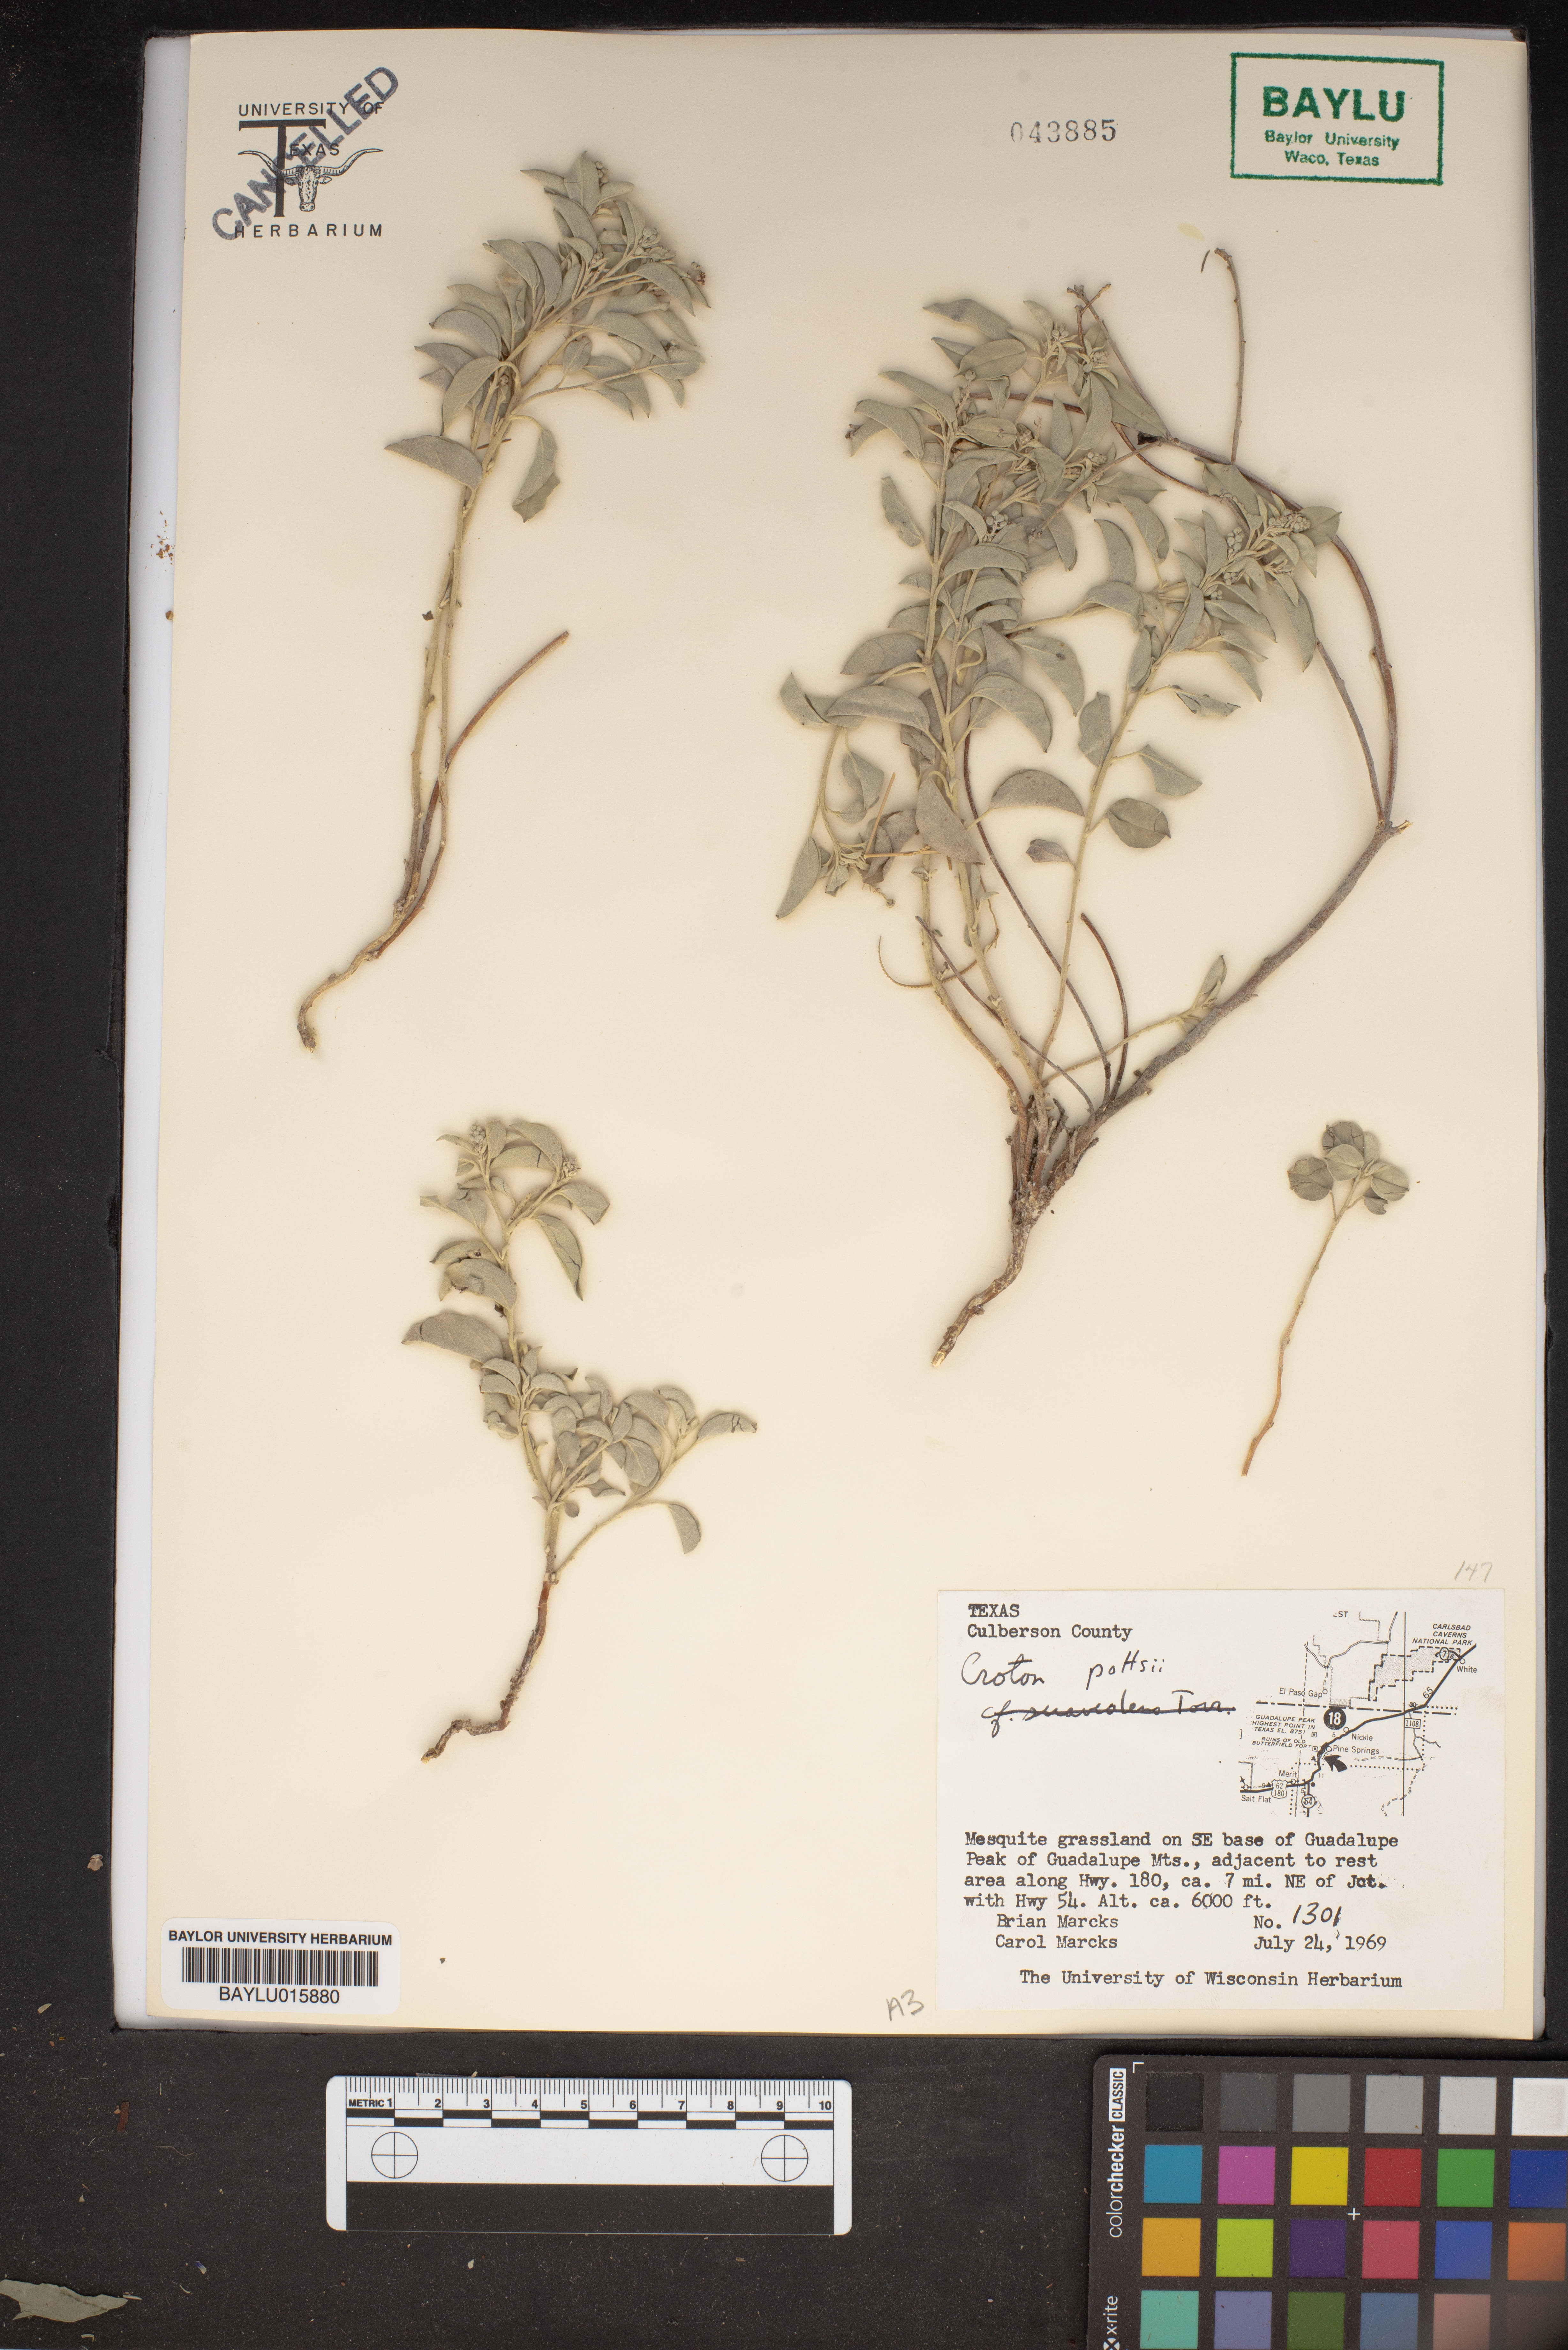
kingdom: Plantae
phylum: Tracheophyta
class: Magnoliopsida
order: Malpighiales
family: Euphorbiaceae
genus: Croton
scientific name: Croton pottsii
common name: Leatherweed
